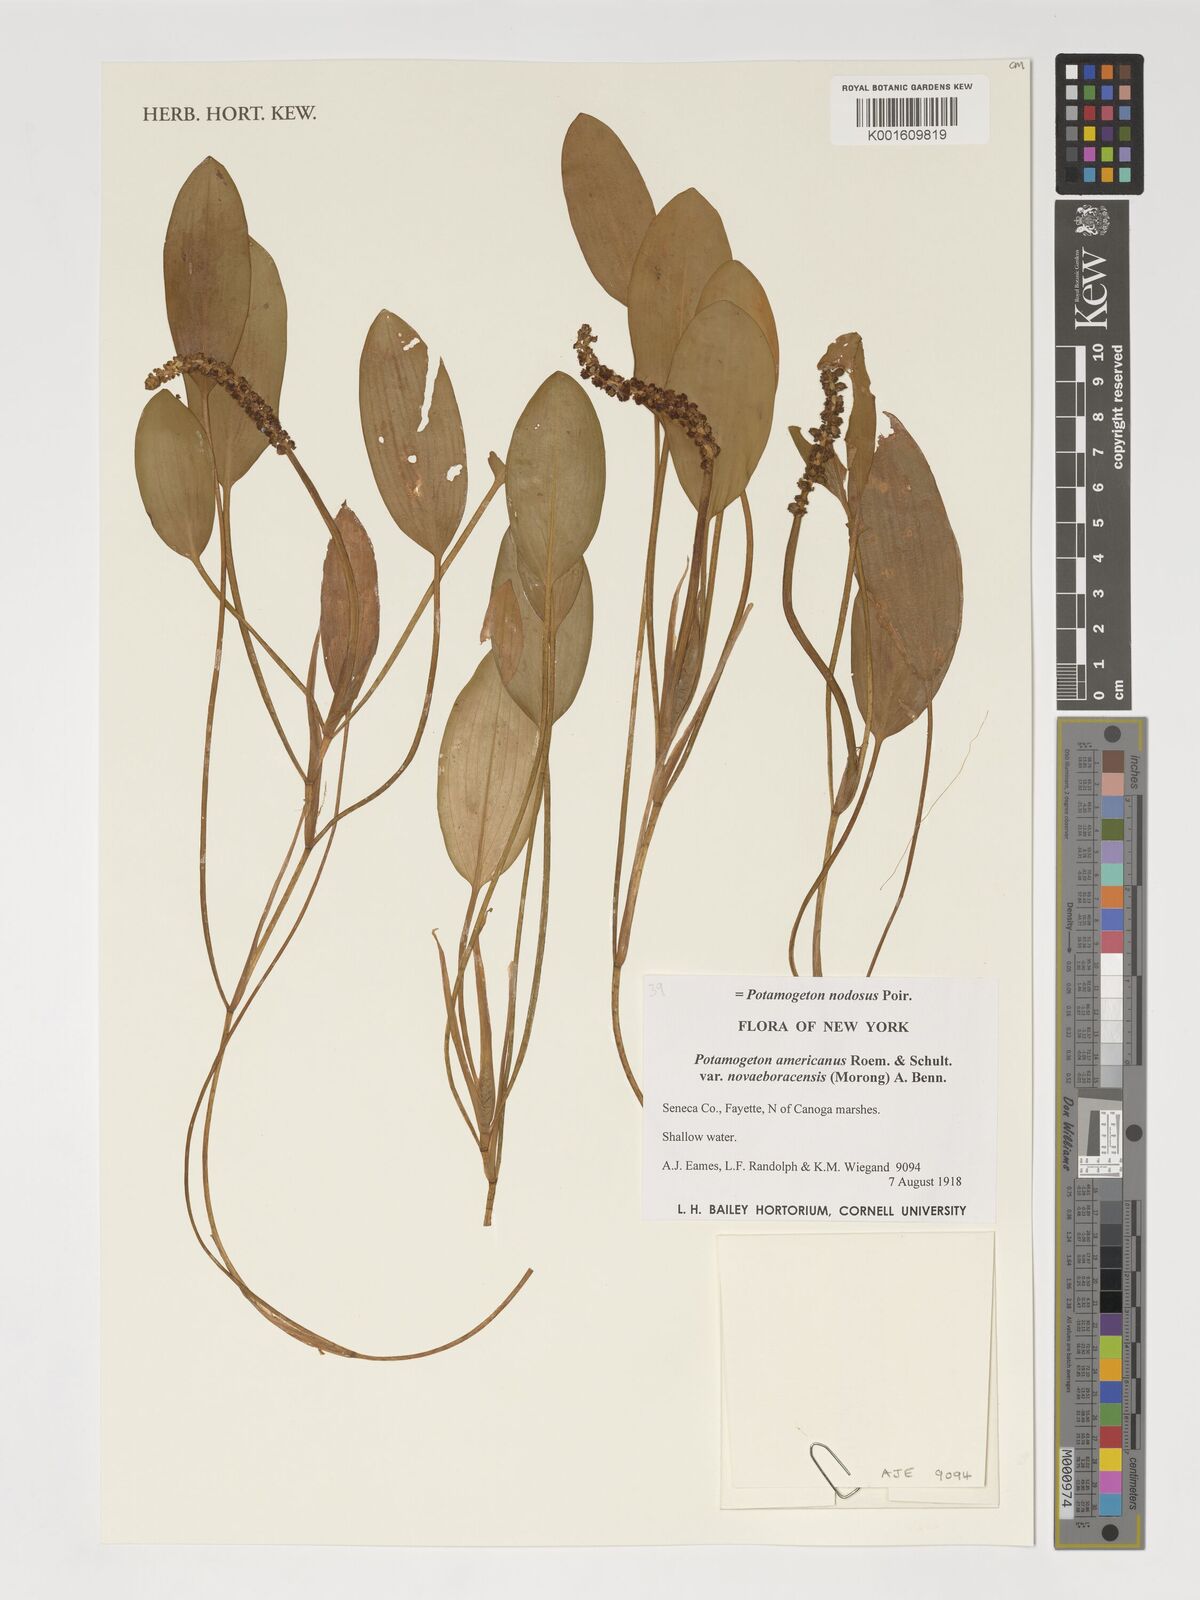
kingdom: Plantae
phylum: Tracheophyta
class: Liliopsida
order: Alismatales
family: Potamogetonaceae
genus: Potamogeton
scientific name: Potamogeton nodosus
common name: Loddon pondweed
